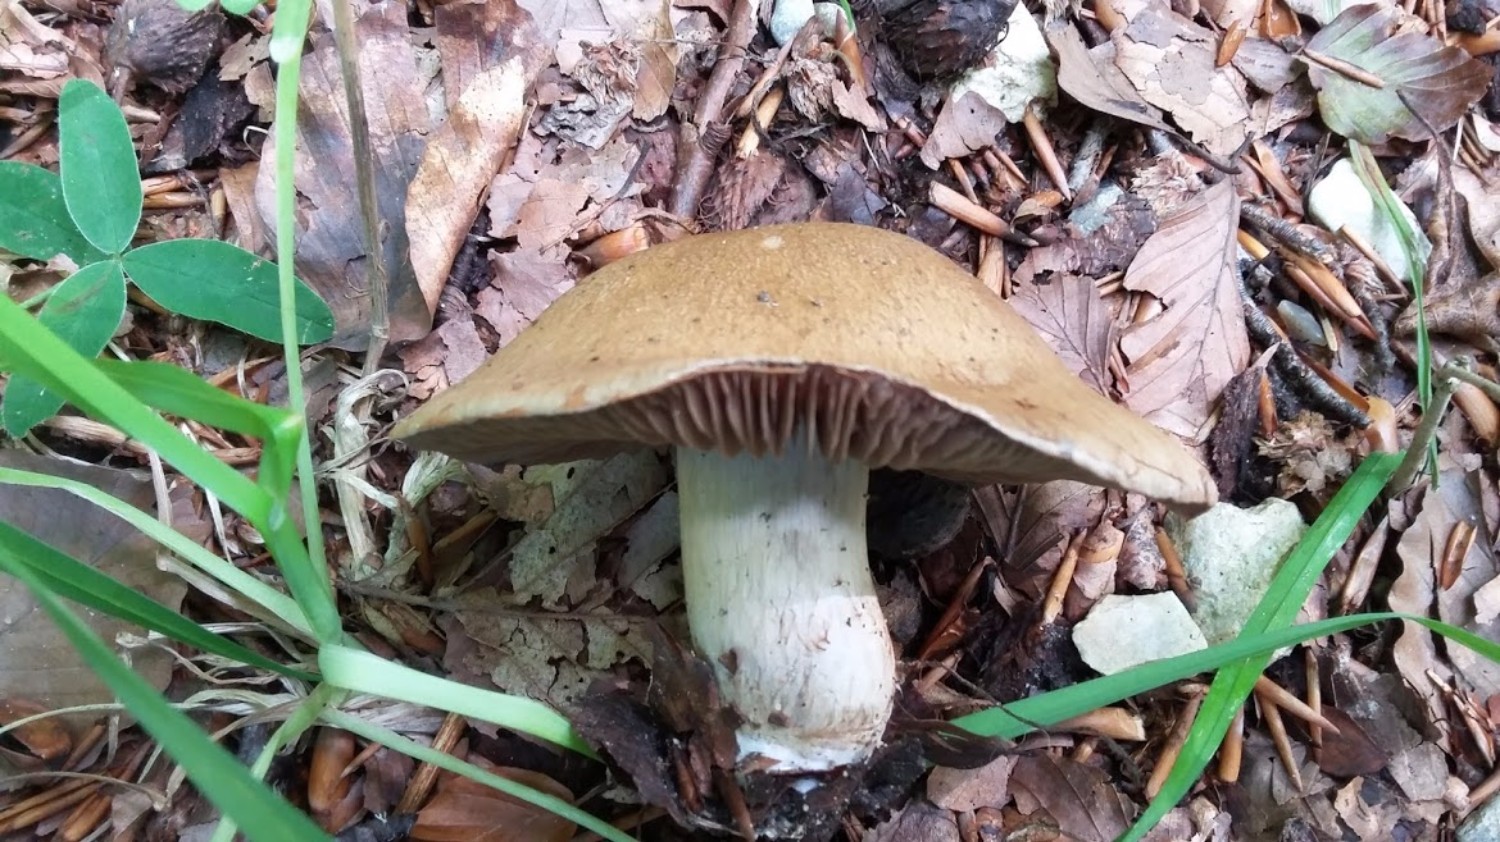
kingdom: Fungi
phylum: Basidiomycota
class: Agaricomycetes
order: Agaricales
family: Cortinariaceae
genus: Cortinarius
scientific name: Cortinarius
